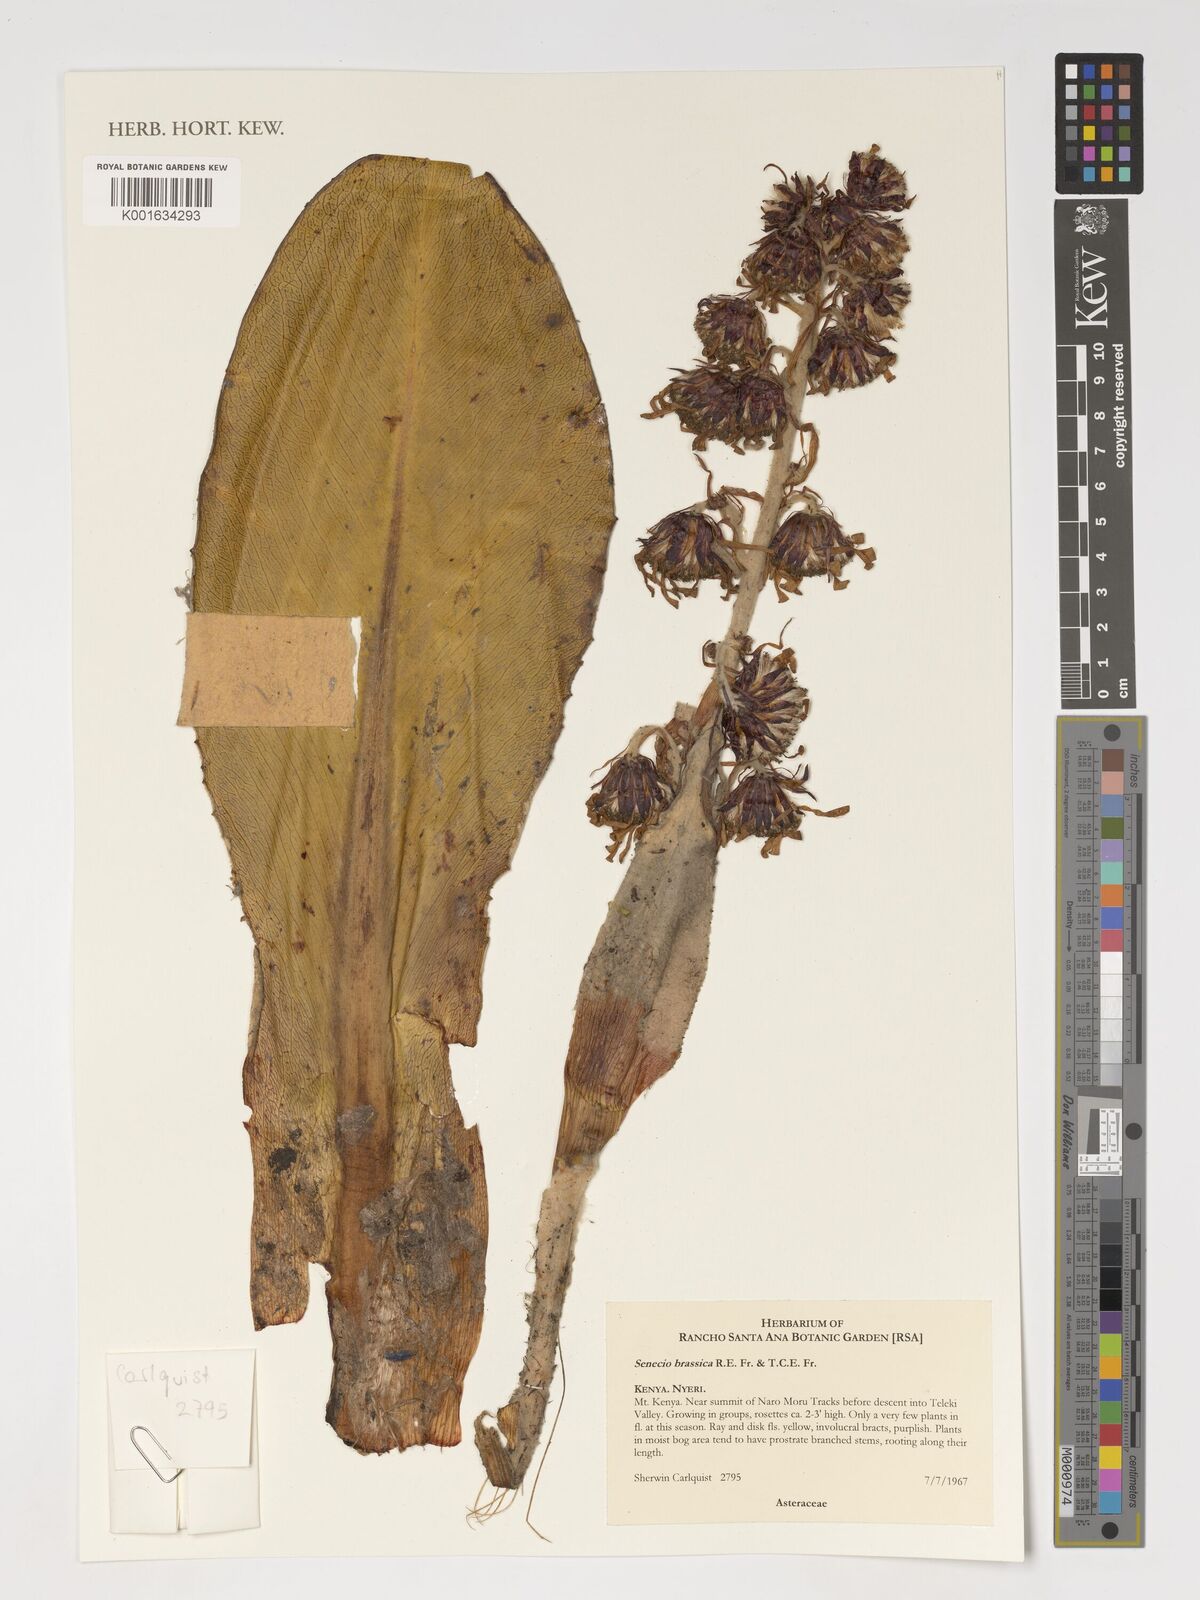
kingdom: Plantae
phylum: Tracheophyta
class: Magnoliopsida
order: Asterales
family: Asteraceae
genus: Dendrosenecio
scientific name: Dendrosenecio brassica
